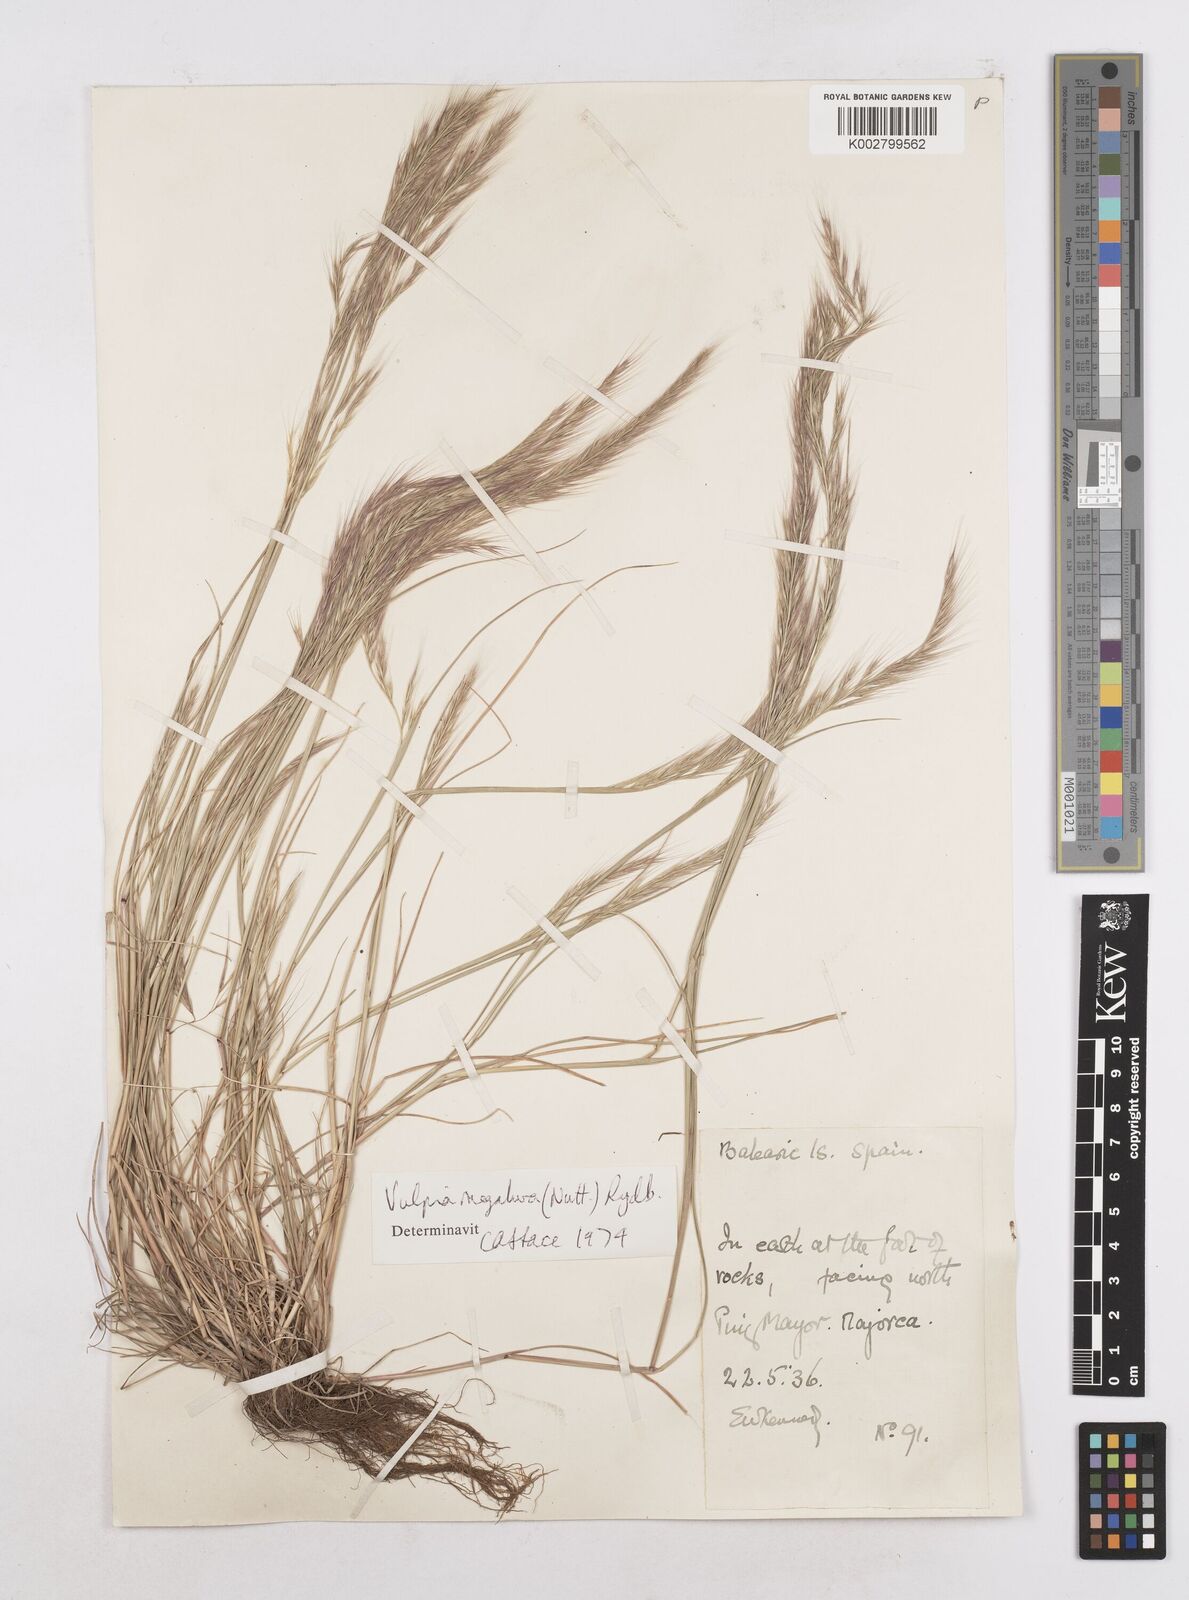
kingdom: Plantae
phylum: Tracheophyta
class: Liliopsida
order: Poales
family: Poaceae
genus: Festuca
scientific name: Festuca myuros
